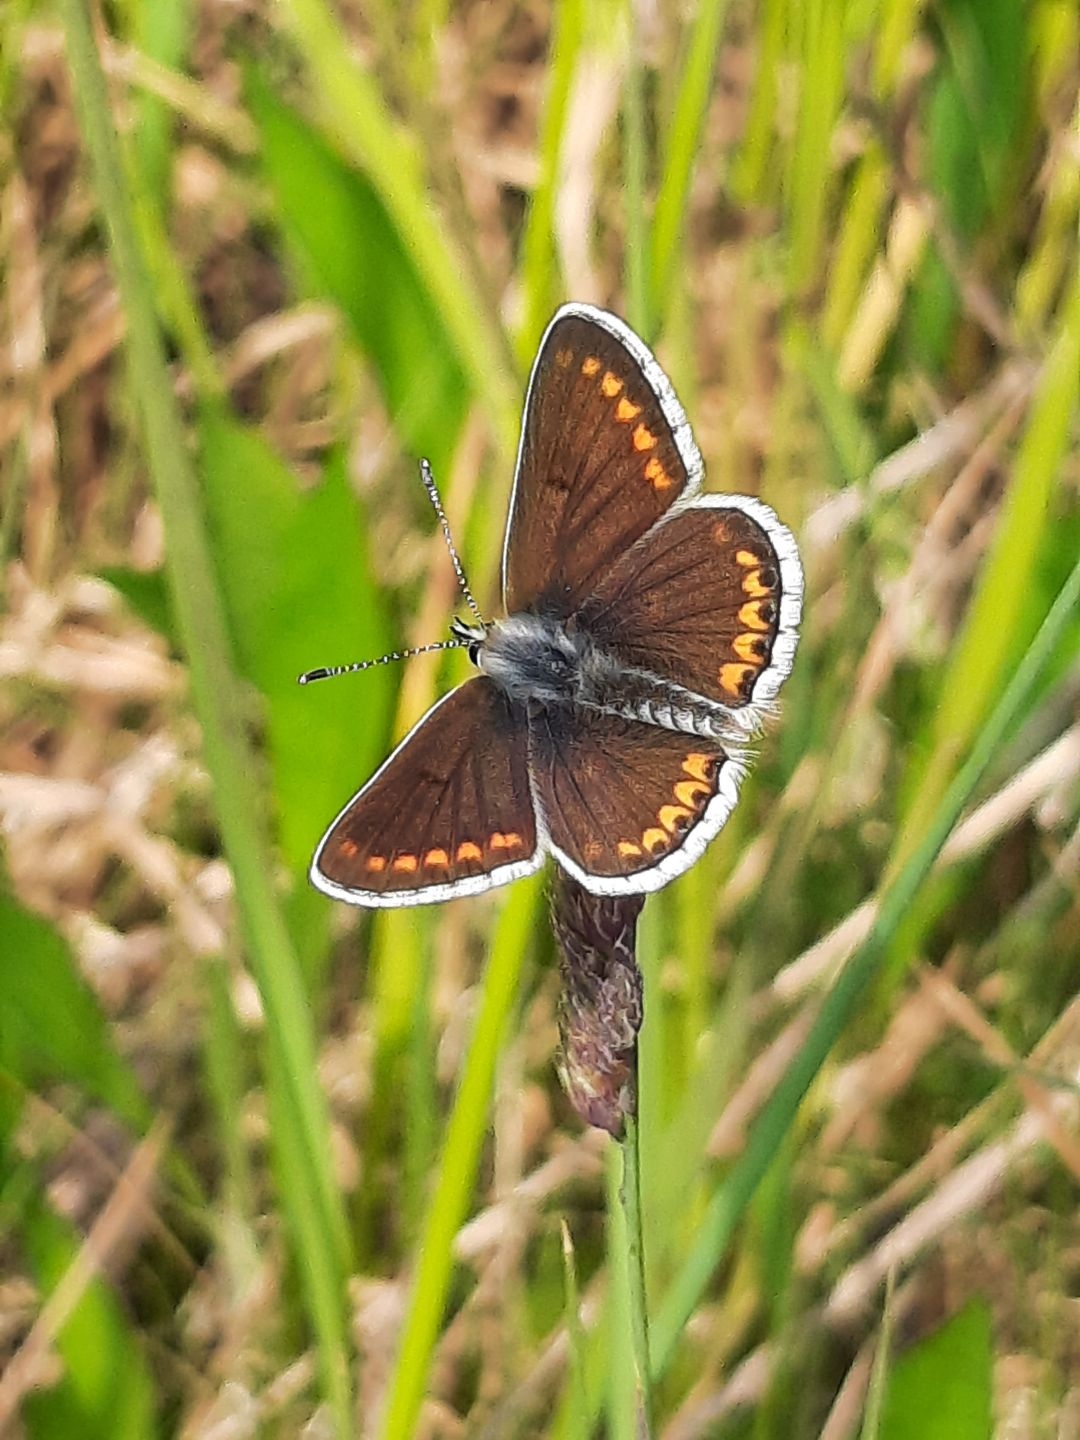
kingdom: Animalia
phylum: Arthropoda
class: Insecta
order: Lepidoptera
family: Lycaenidae
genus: Polyommatus
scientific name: Polyommatus icarus
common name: Almindelig blåfugl
